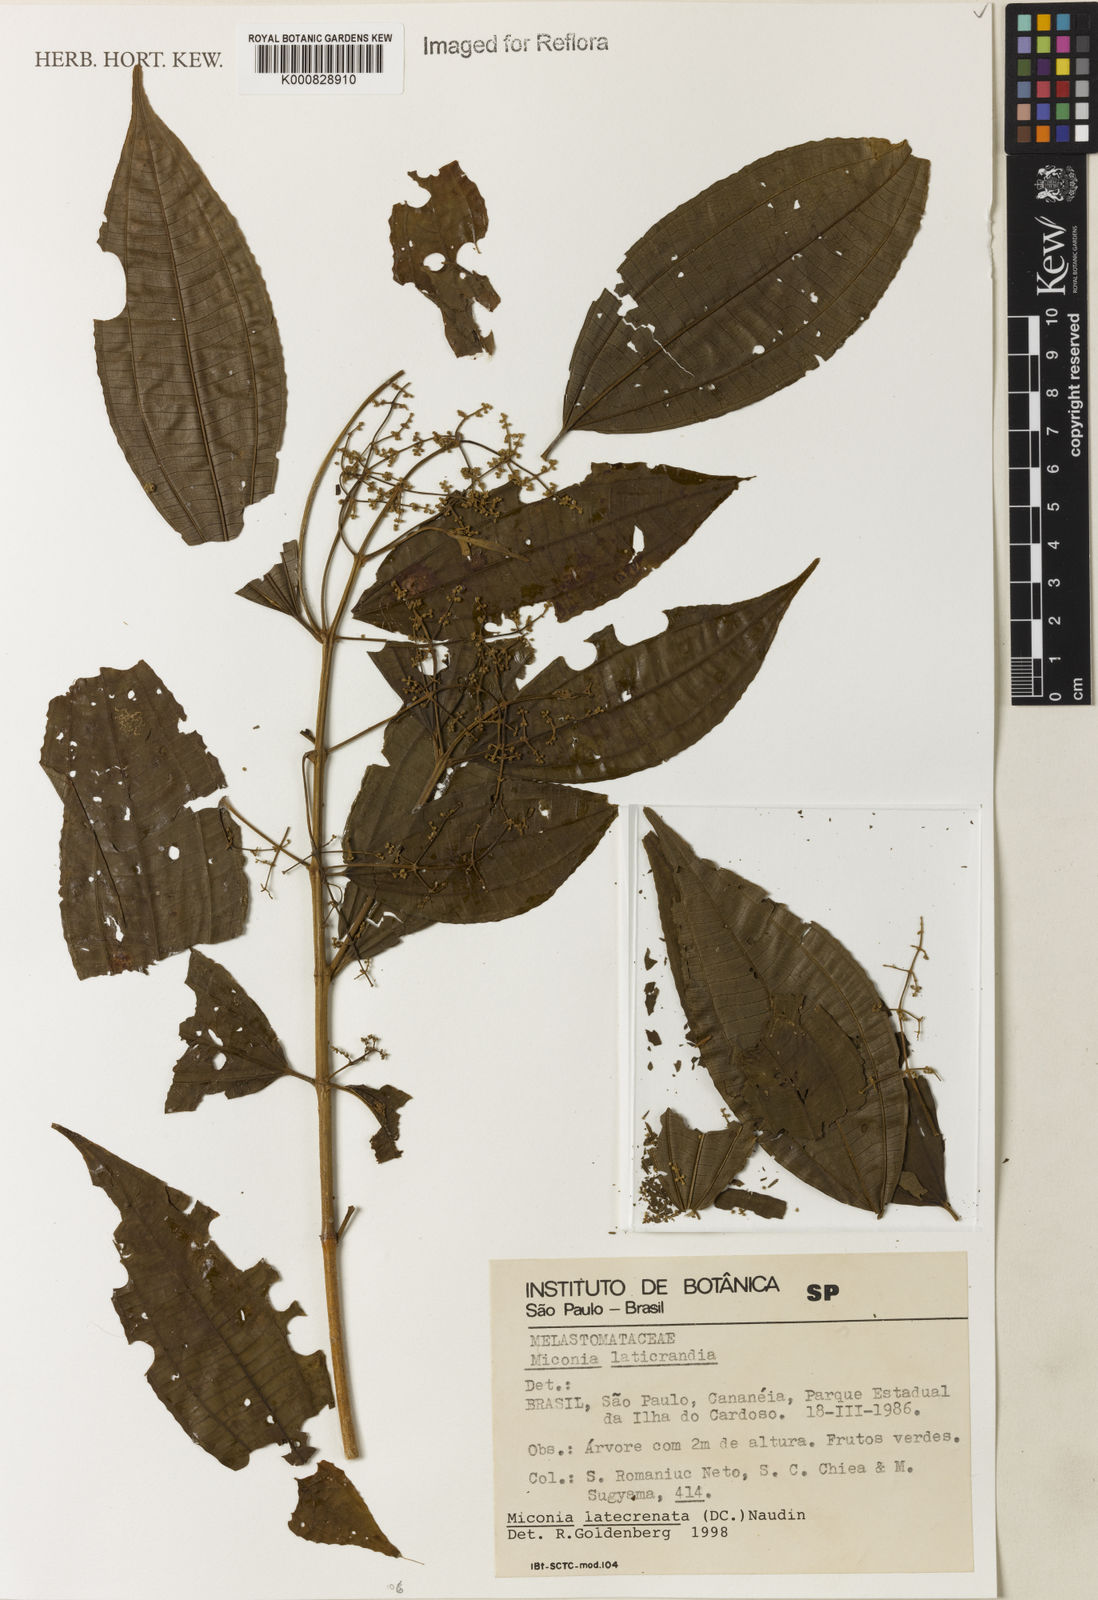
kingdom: Plantae
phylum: Tracheophyta
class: Magnoliopsida
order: Myrtales
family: Melastomataceae
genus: Miconia
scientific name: Miconia latecrenata
